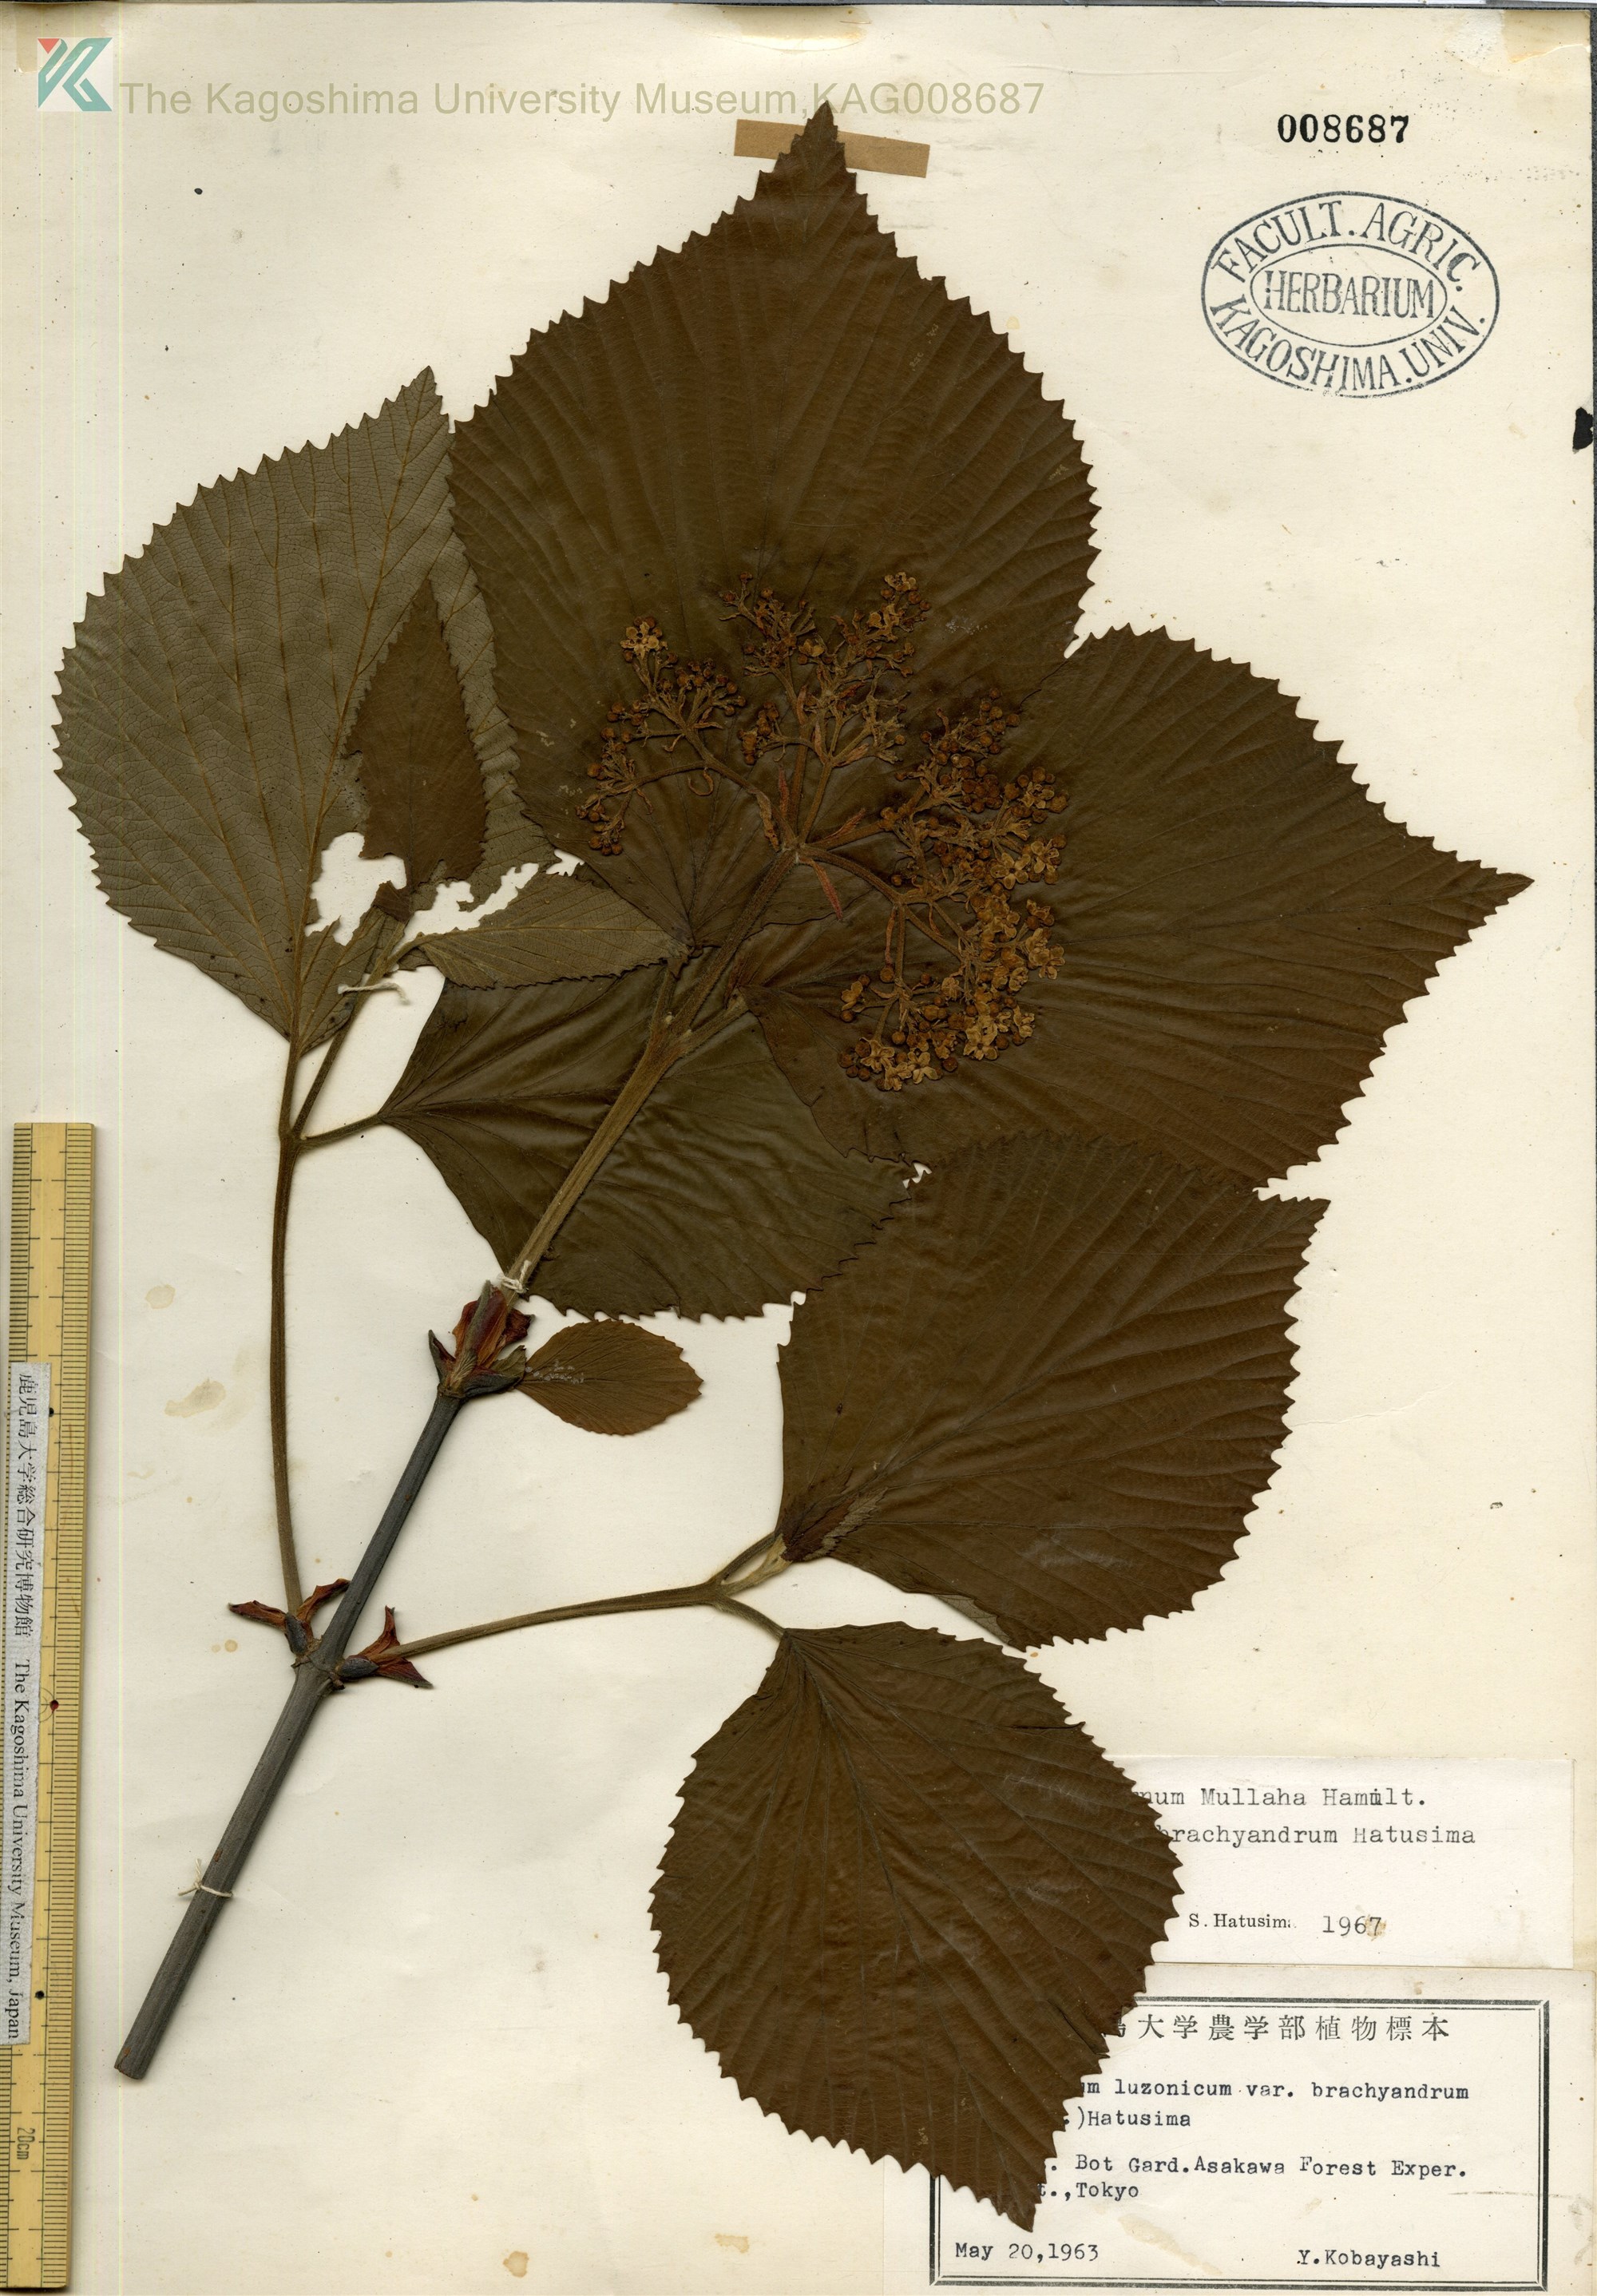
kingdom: Plantae
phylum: Tracheophyta
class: Magnoliopsida
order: Dipsacales
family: Viburnaceae
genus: Viburnum
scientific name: Viburnum mullaha
